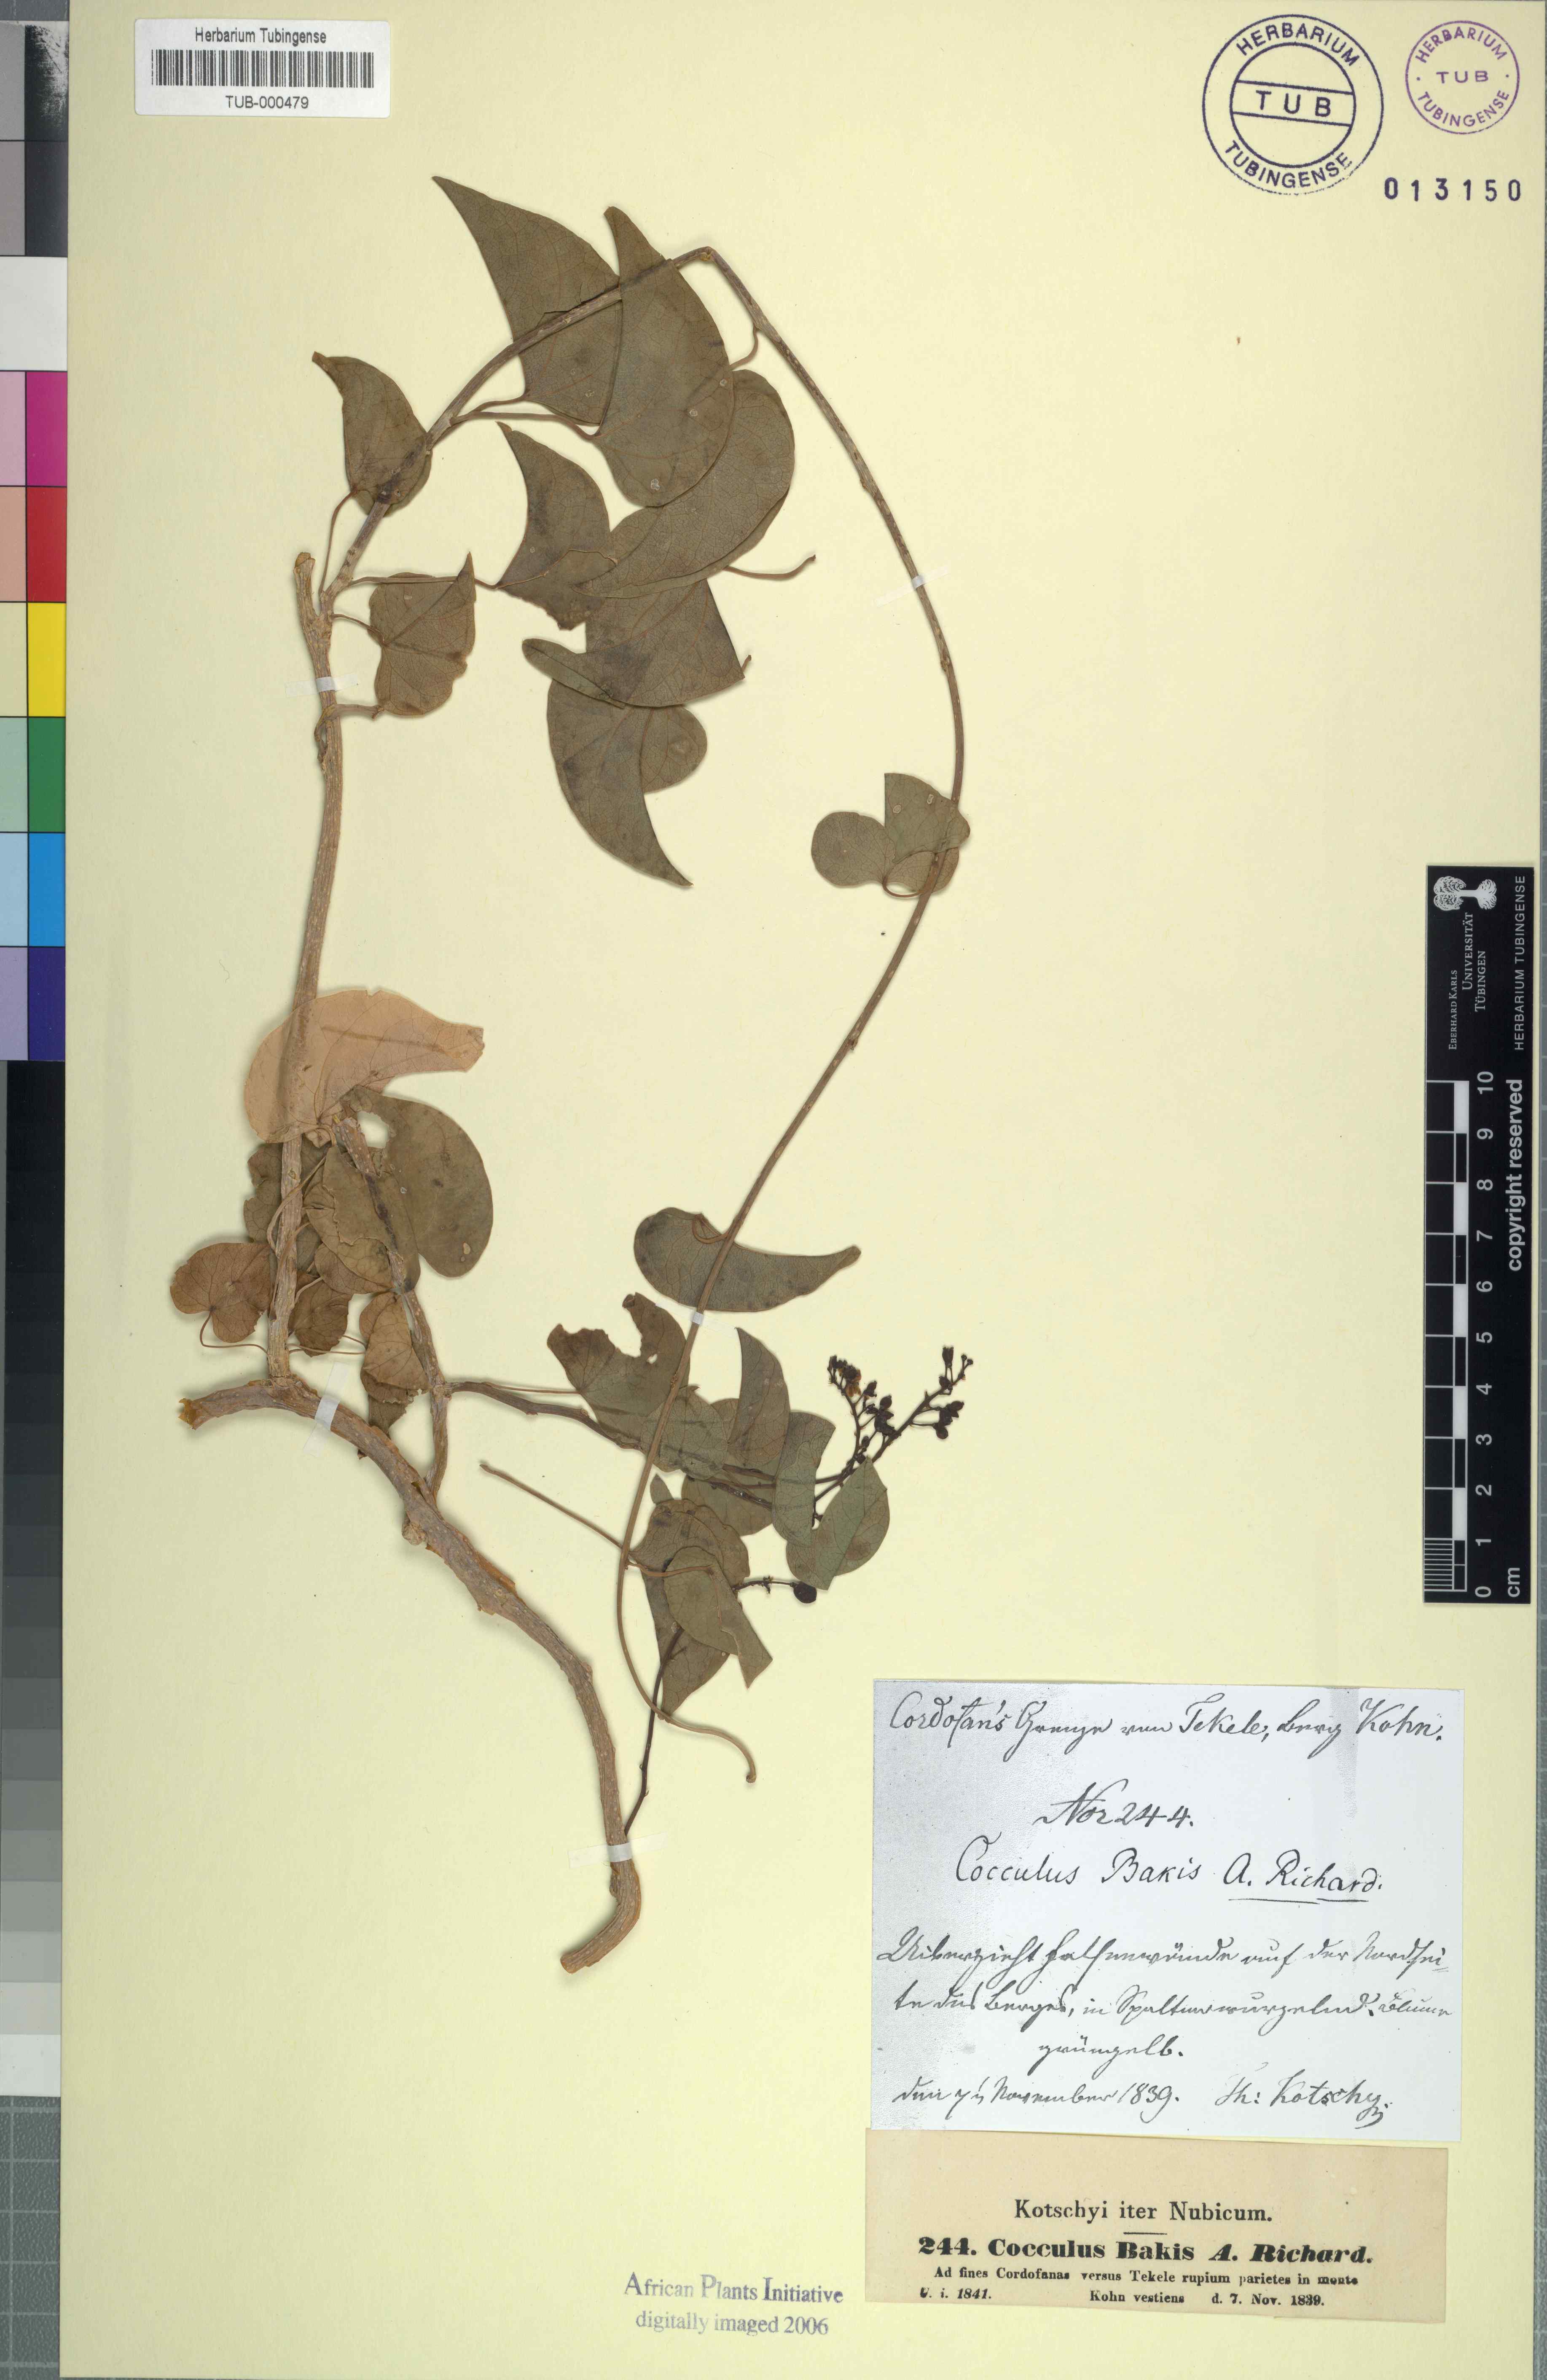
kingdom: Plantae
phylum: Tracheophyta
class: Magnoliopsida
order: Ranunculales
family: Menispermaceae
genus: Tinospora
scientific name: Tinospora bakis
